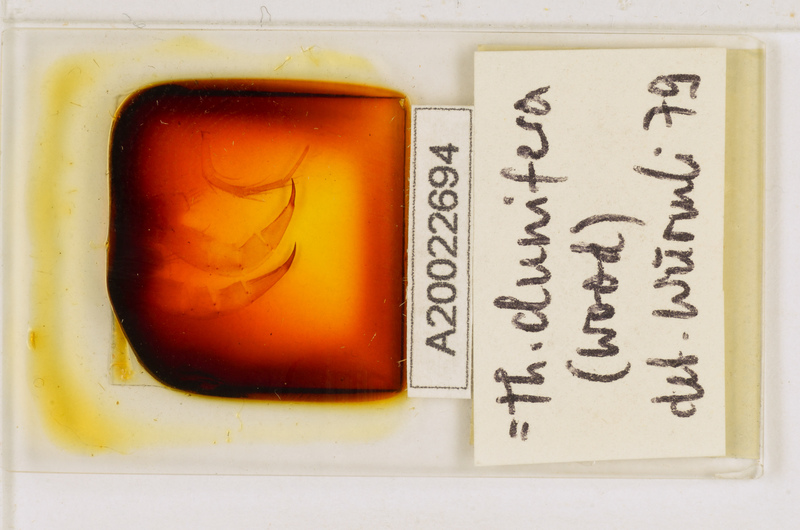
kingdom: Animalia
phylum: Arthropoda
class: Chilopoda
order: Scutigeromorpha
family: Scutigeridae
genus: Thereuopoda
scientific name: Thereuopoda clunifera
